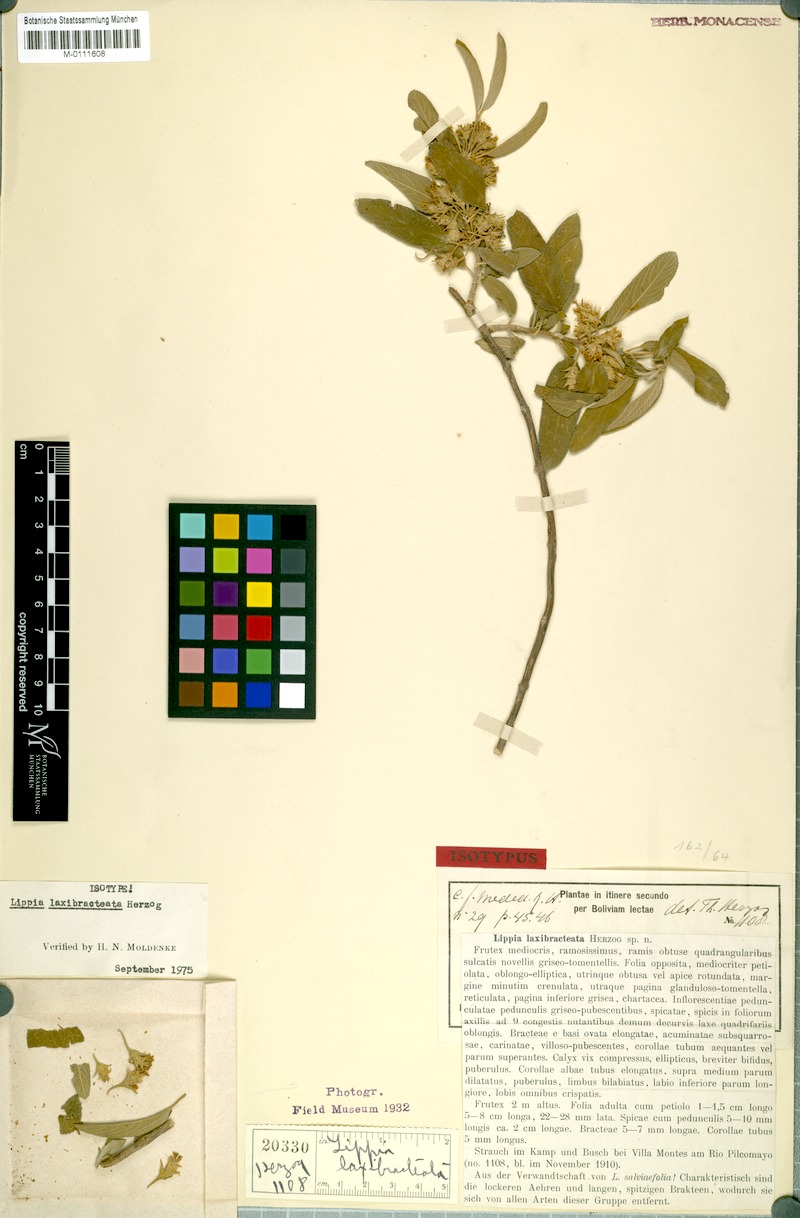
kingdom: Plantae
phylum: Tracheophyta
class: Magnoliopsida
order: Lamiales
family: Verbenaceae
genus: Lippia
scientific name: Lippia grata
